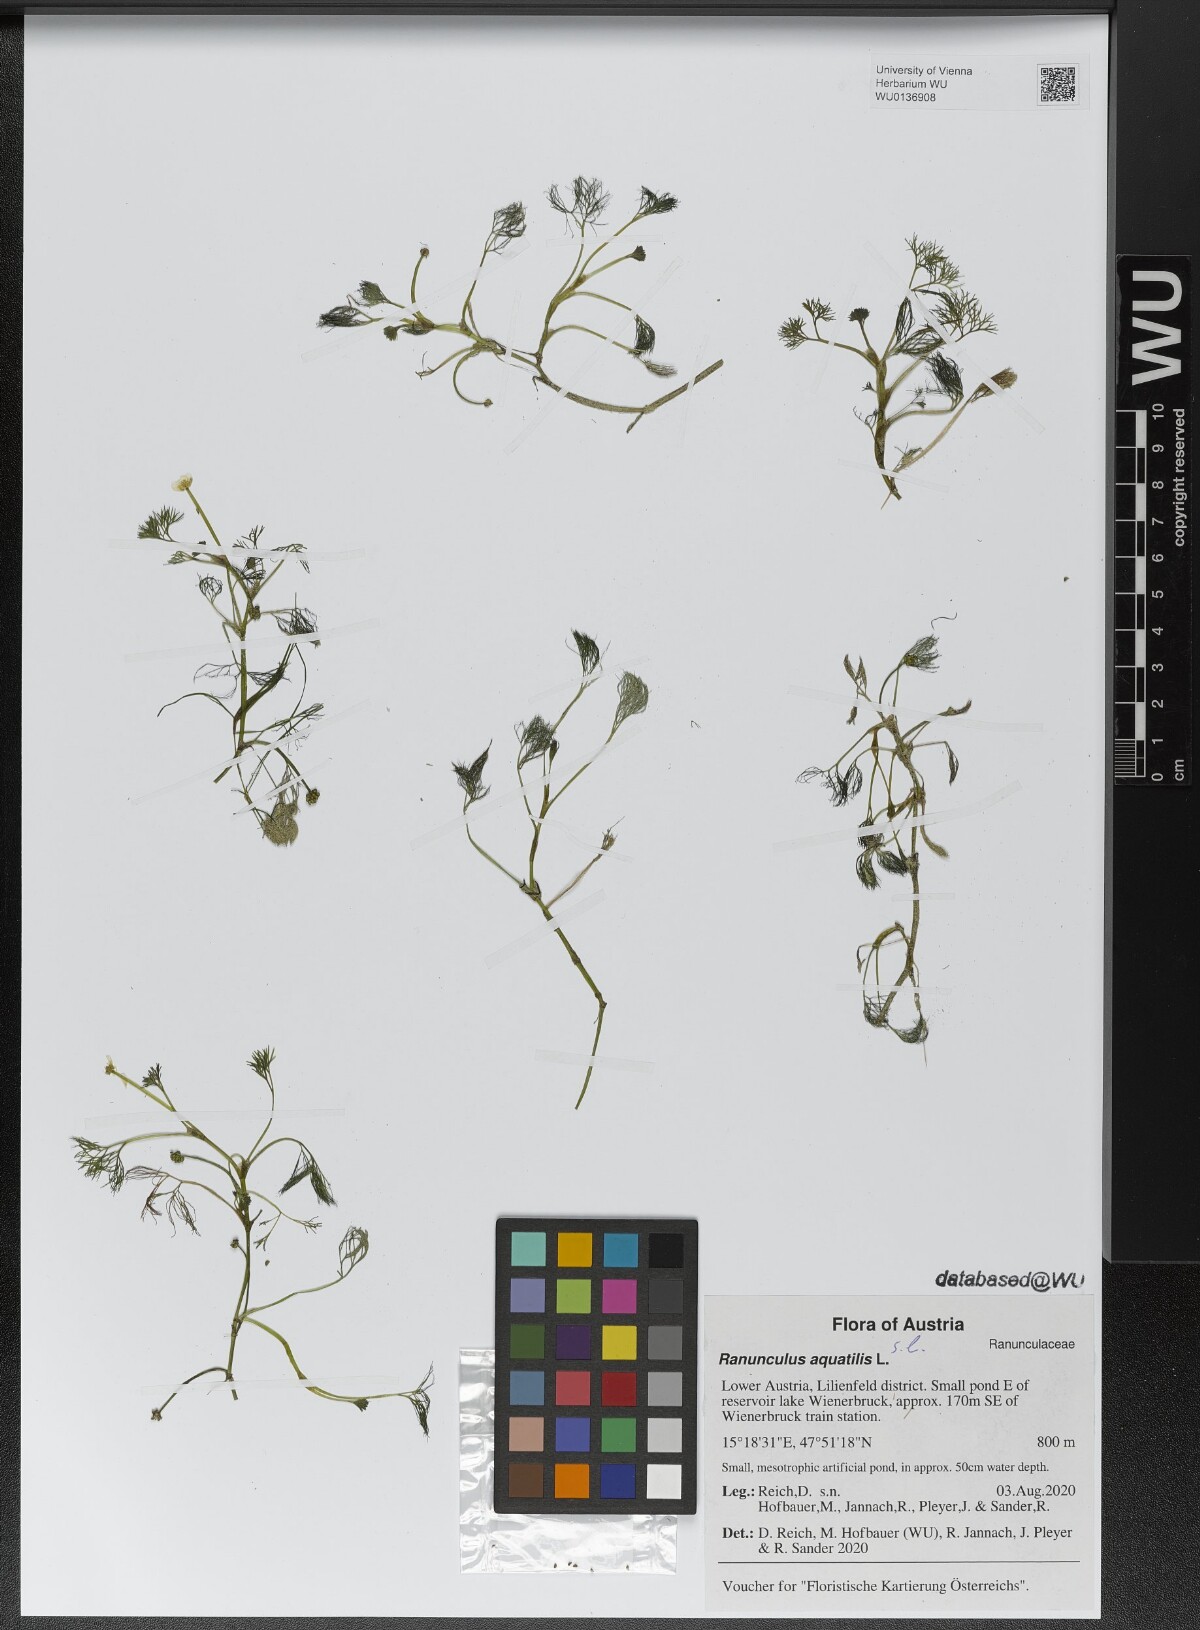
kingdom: Plantae
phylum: Tracheophyta
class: Magnoliopsida
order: Ranunculales
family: Ranunculaceae
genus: Ranunculus
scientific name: Ranunculus aquatilis
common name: Common water-crowfoot
